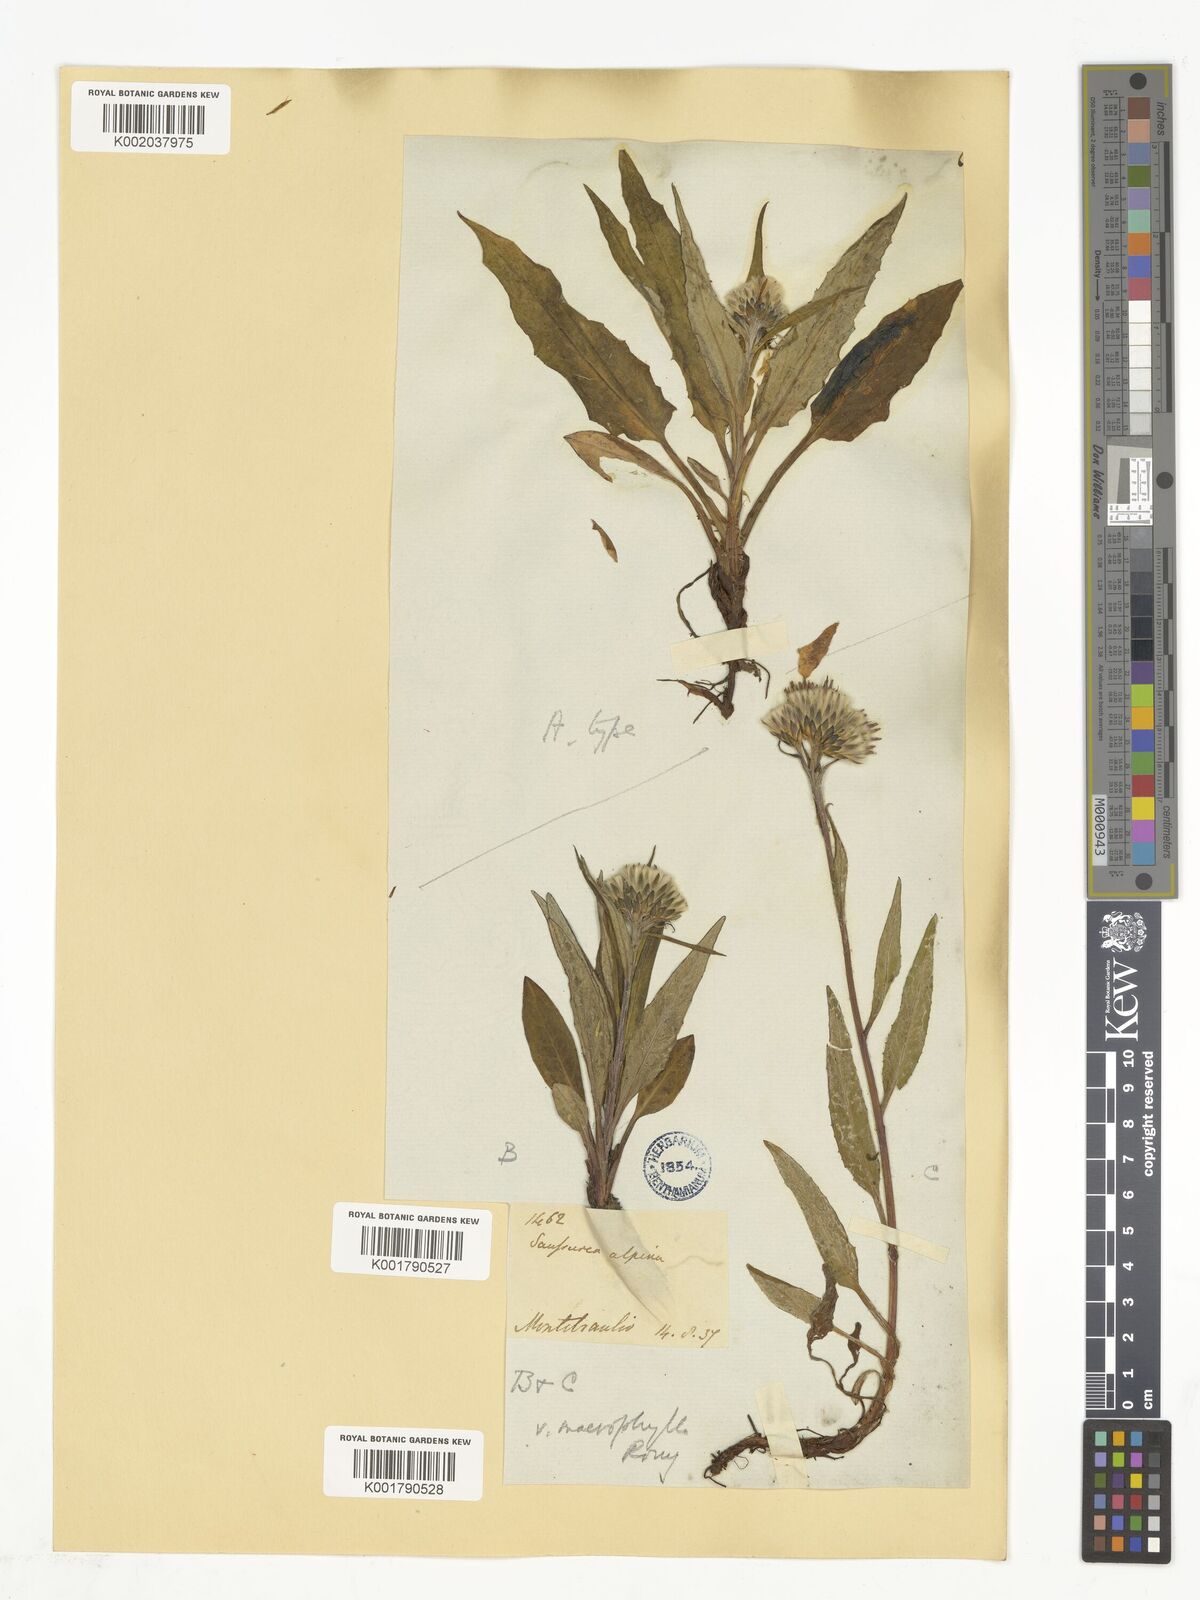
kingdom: Plantae
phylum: Tracheophyta
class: Magnoliopsida
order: Asterales
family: Asteraceae
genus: Saussurea
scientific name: Saussurea alpina
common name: Alpine saw-wort
